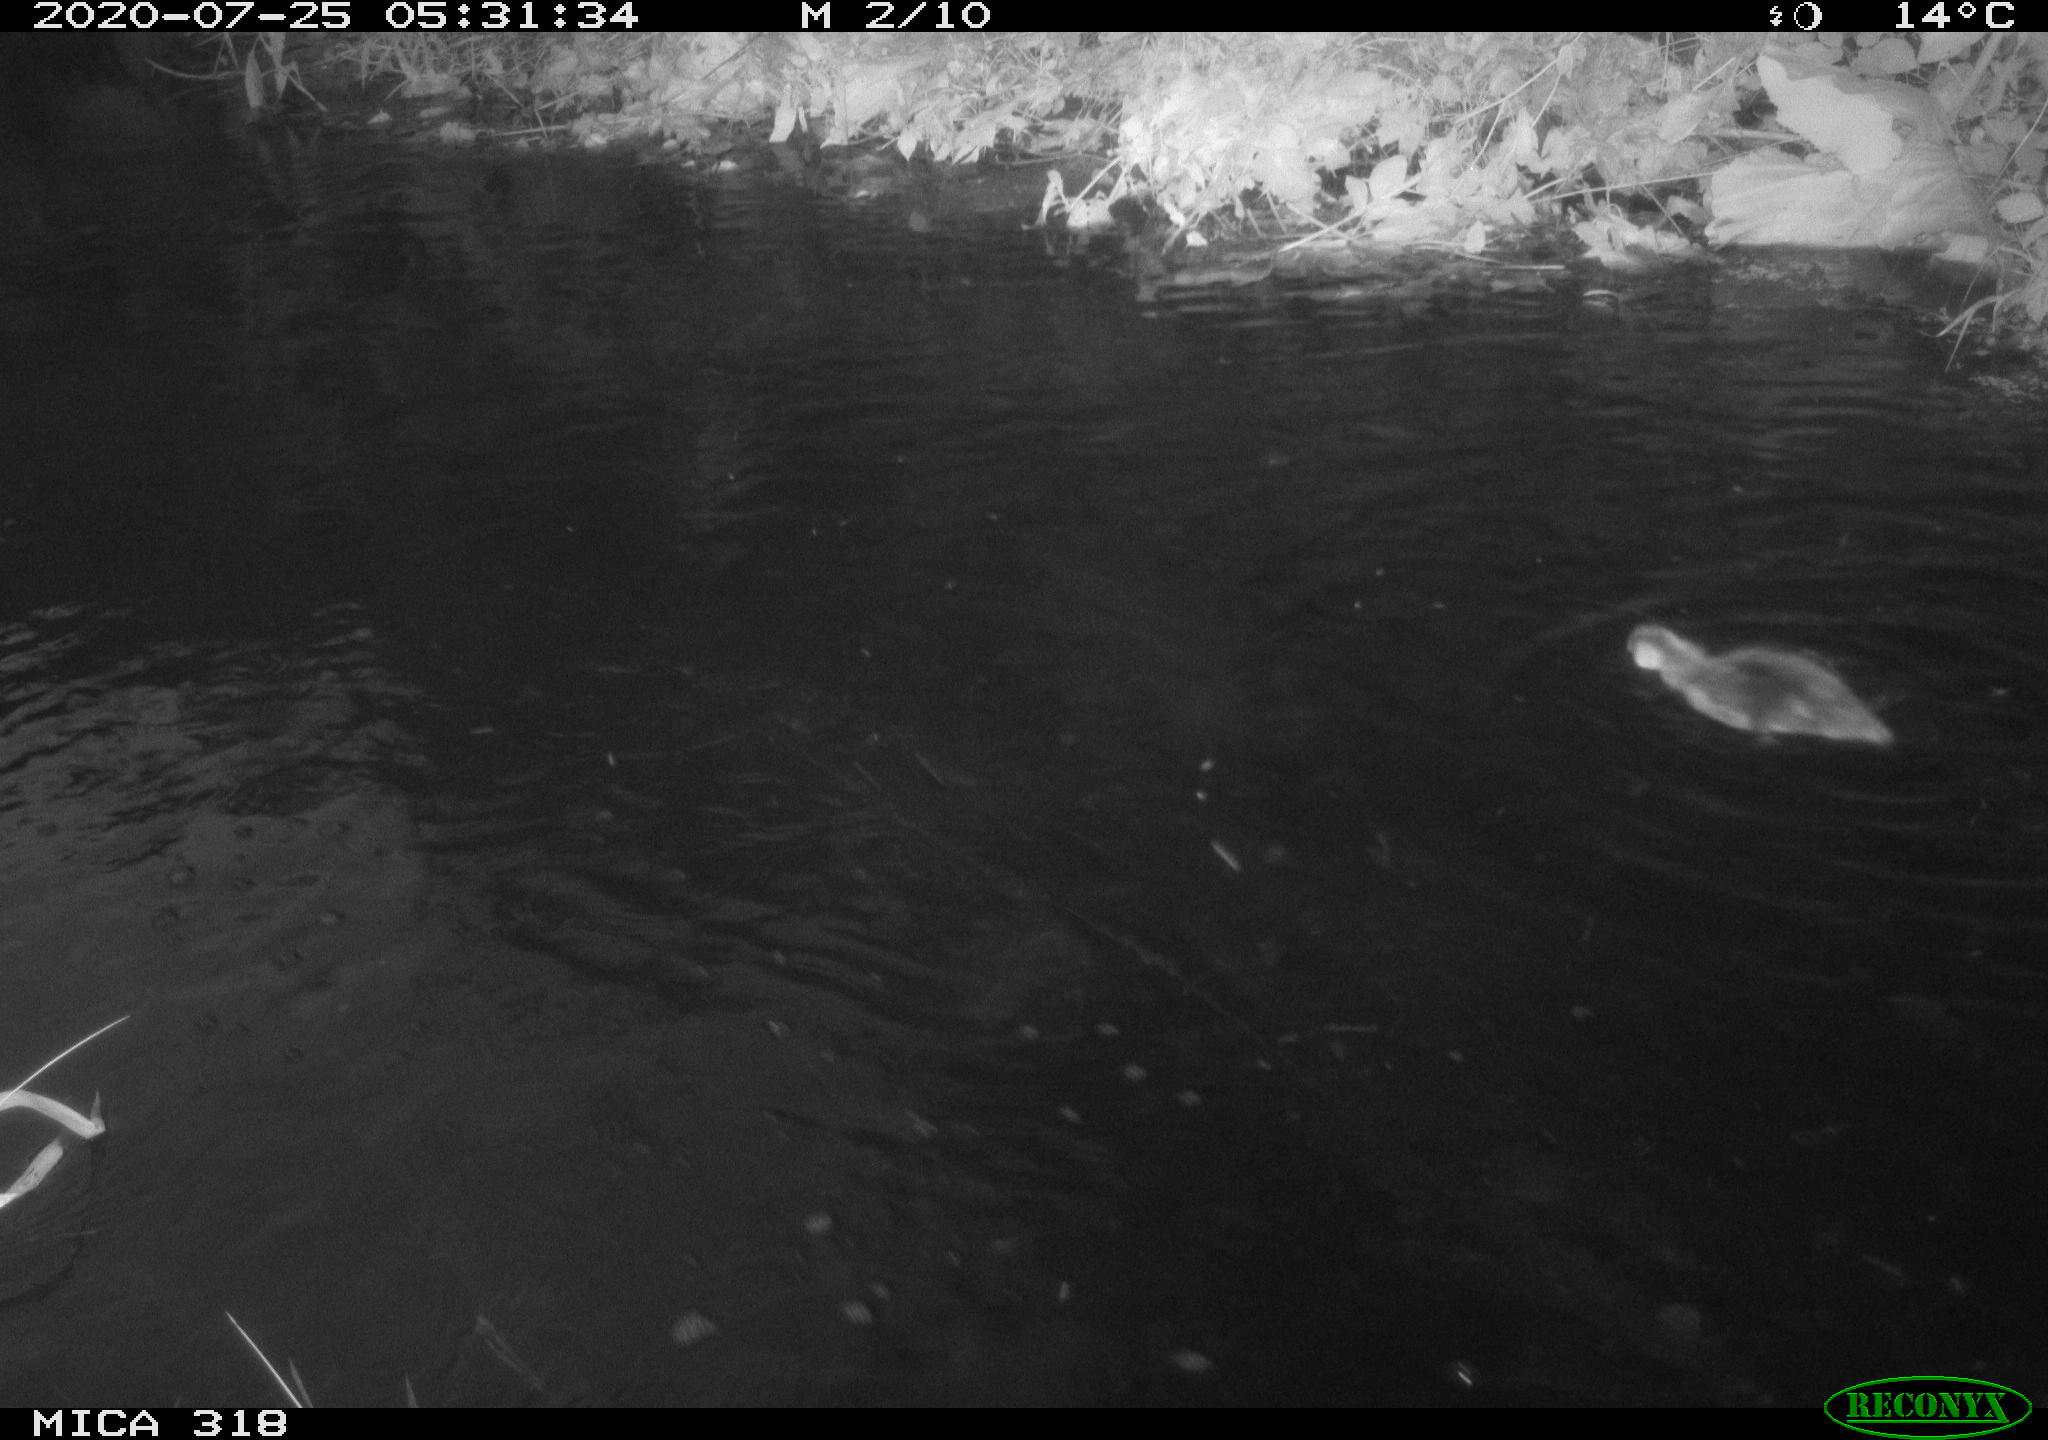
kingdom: Animalia
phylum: Chordata
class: Aves
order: Anseriformes
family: Anatidae
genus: Anas
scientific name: Anas platyrhynchos
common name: Mallard
